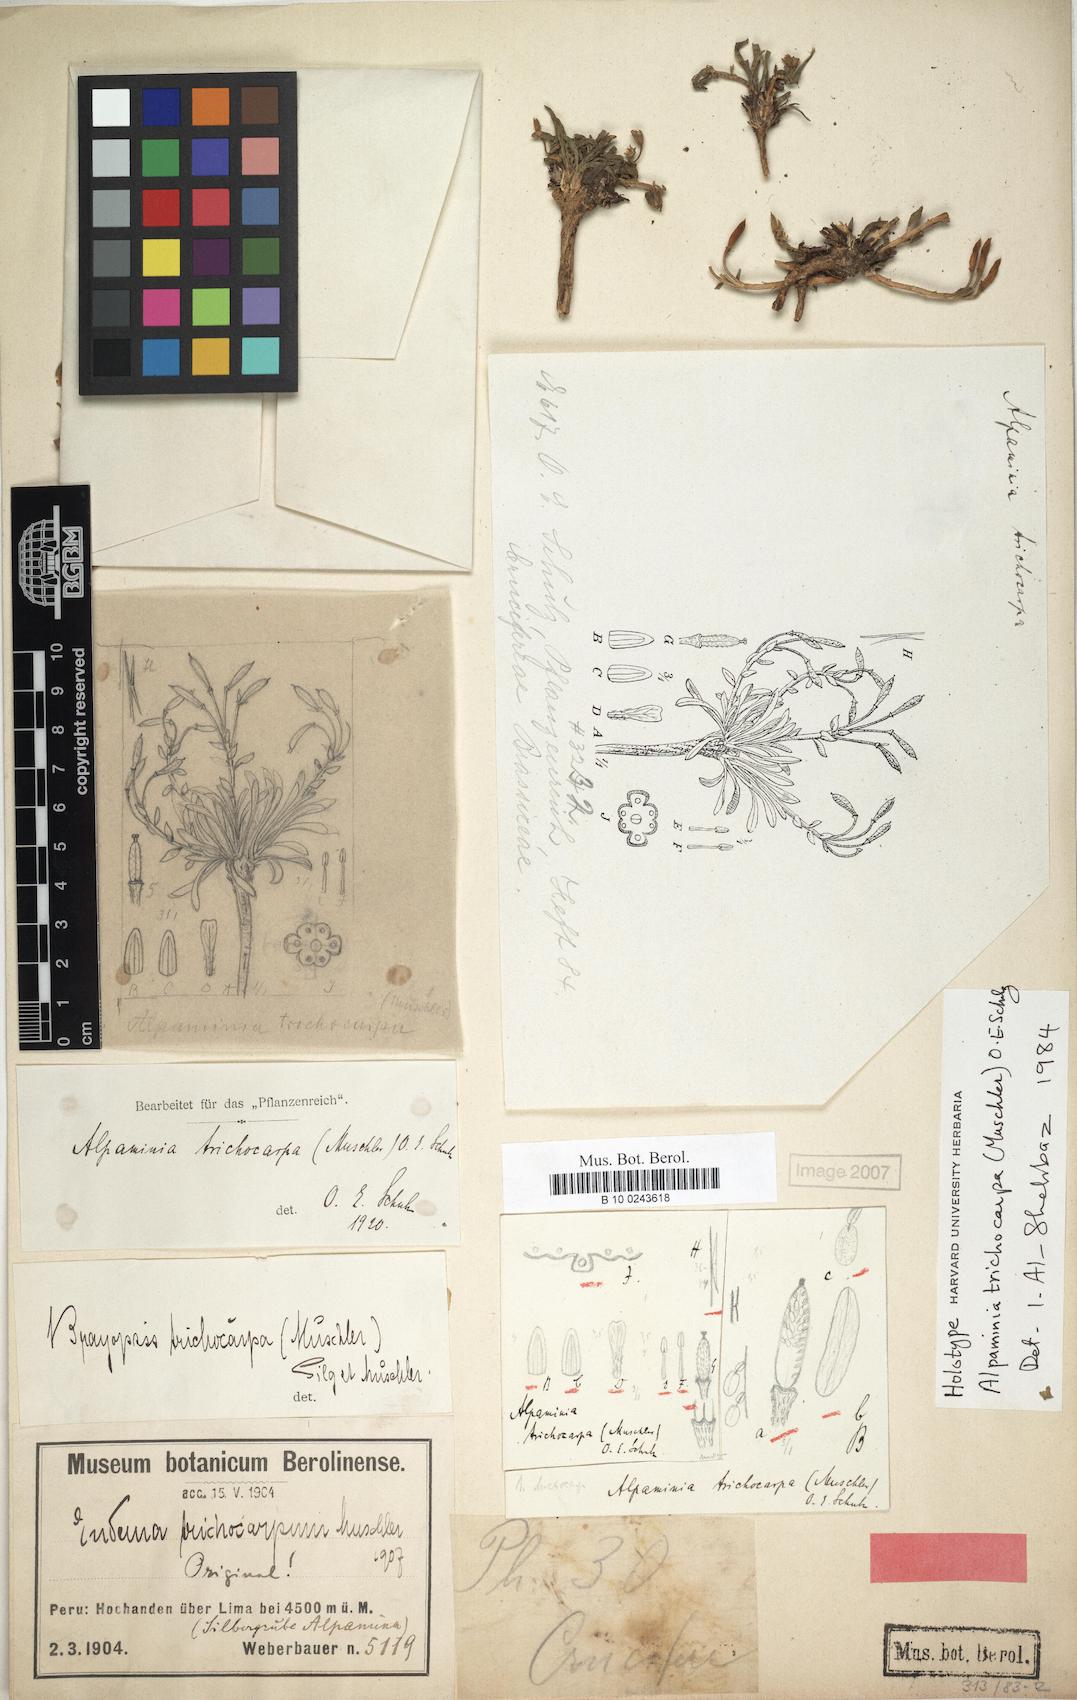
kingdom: Plantae
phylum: Tracheophyta
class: Magnoliopsida
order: Brassicales
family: Brassicaceae
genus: Weberbauera
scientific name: Weberbauera trichocarpa
